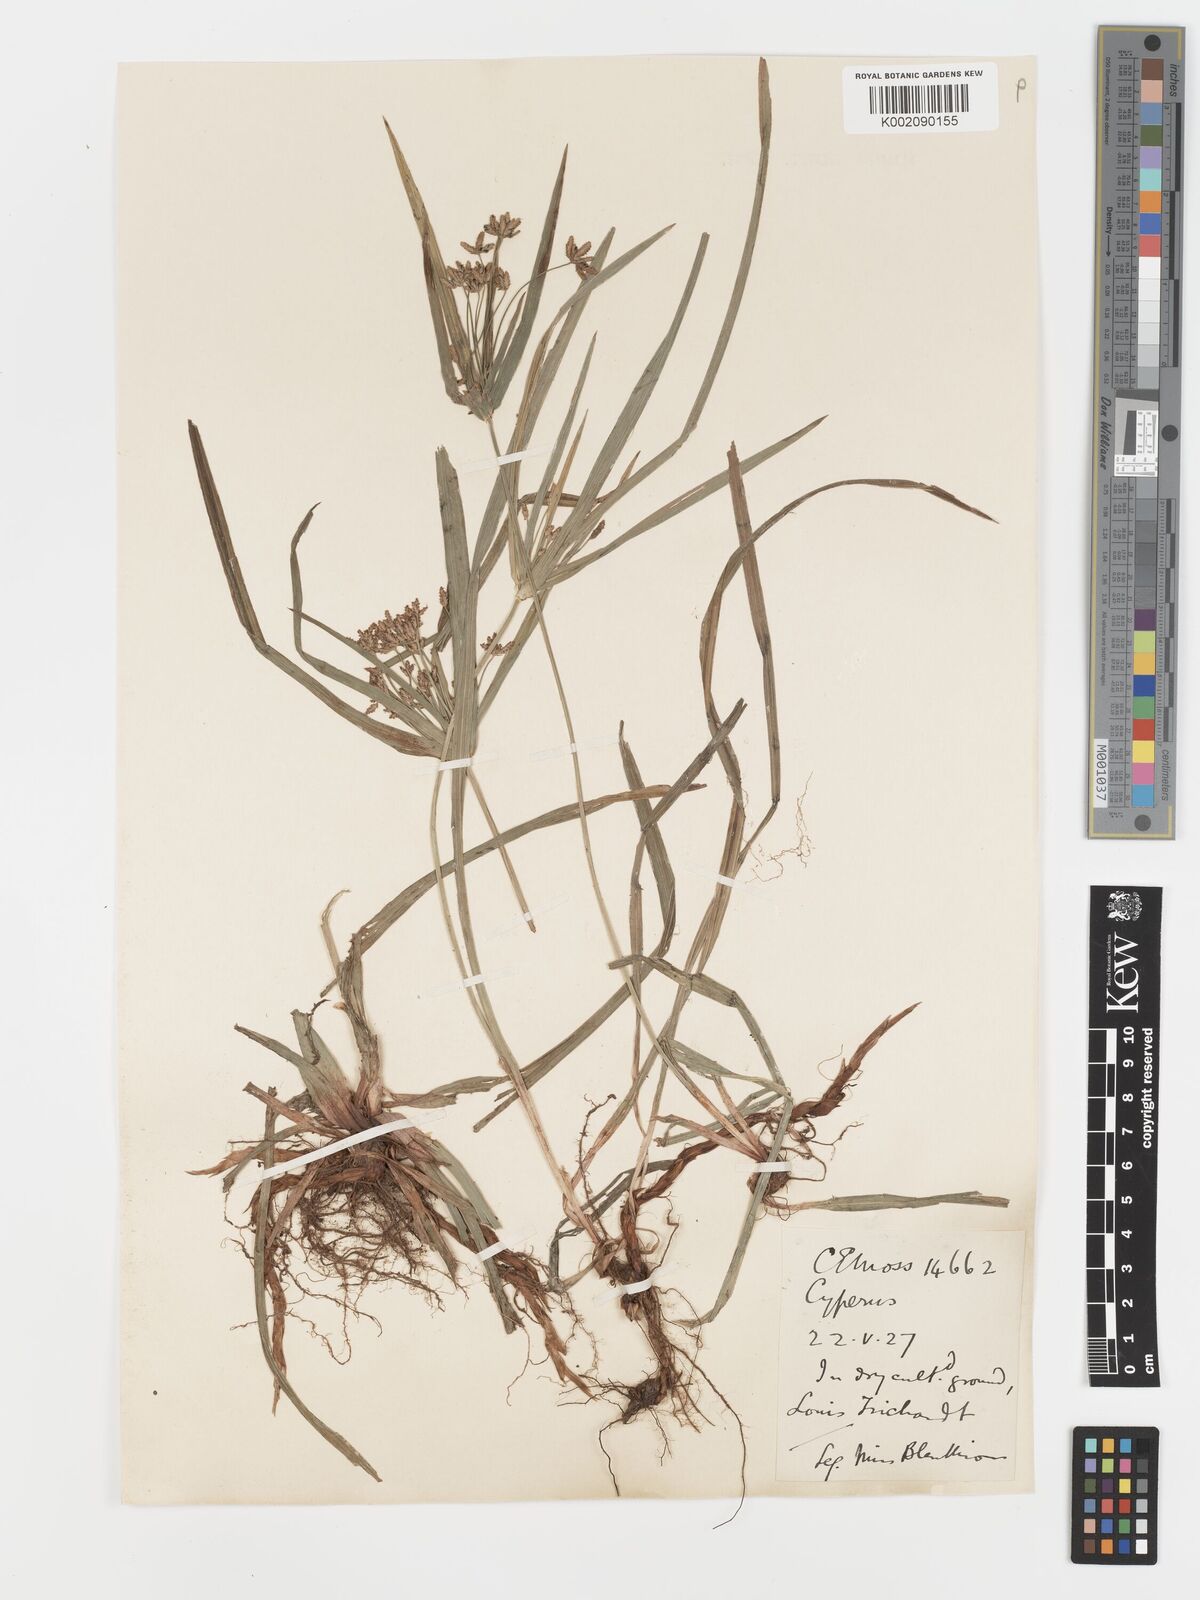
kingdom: Plantae
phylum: Tracheophyta
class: Liliopsida
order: Poales
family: Cyperaceae
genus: Cyperus
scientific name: Cyperus albostriatus
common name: Dwarf umbrella-grass
